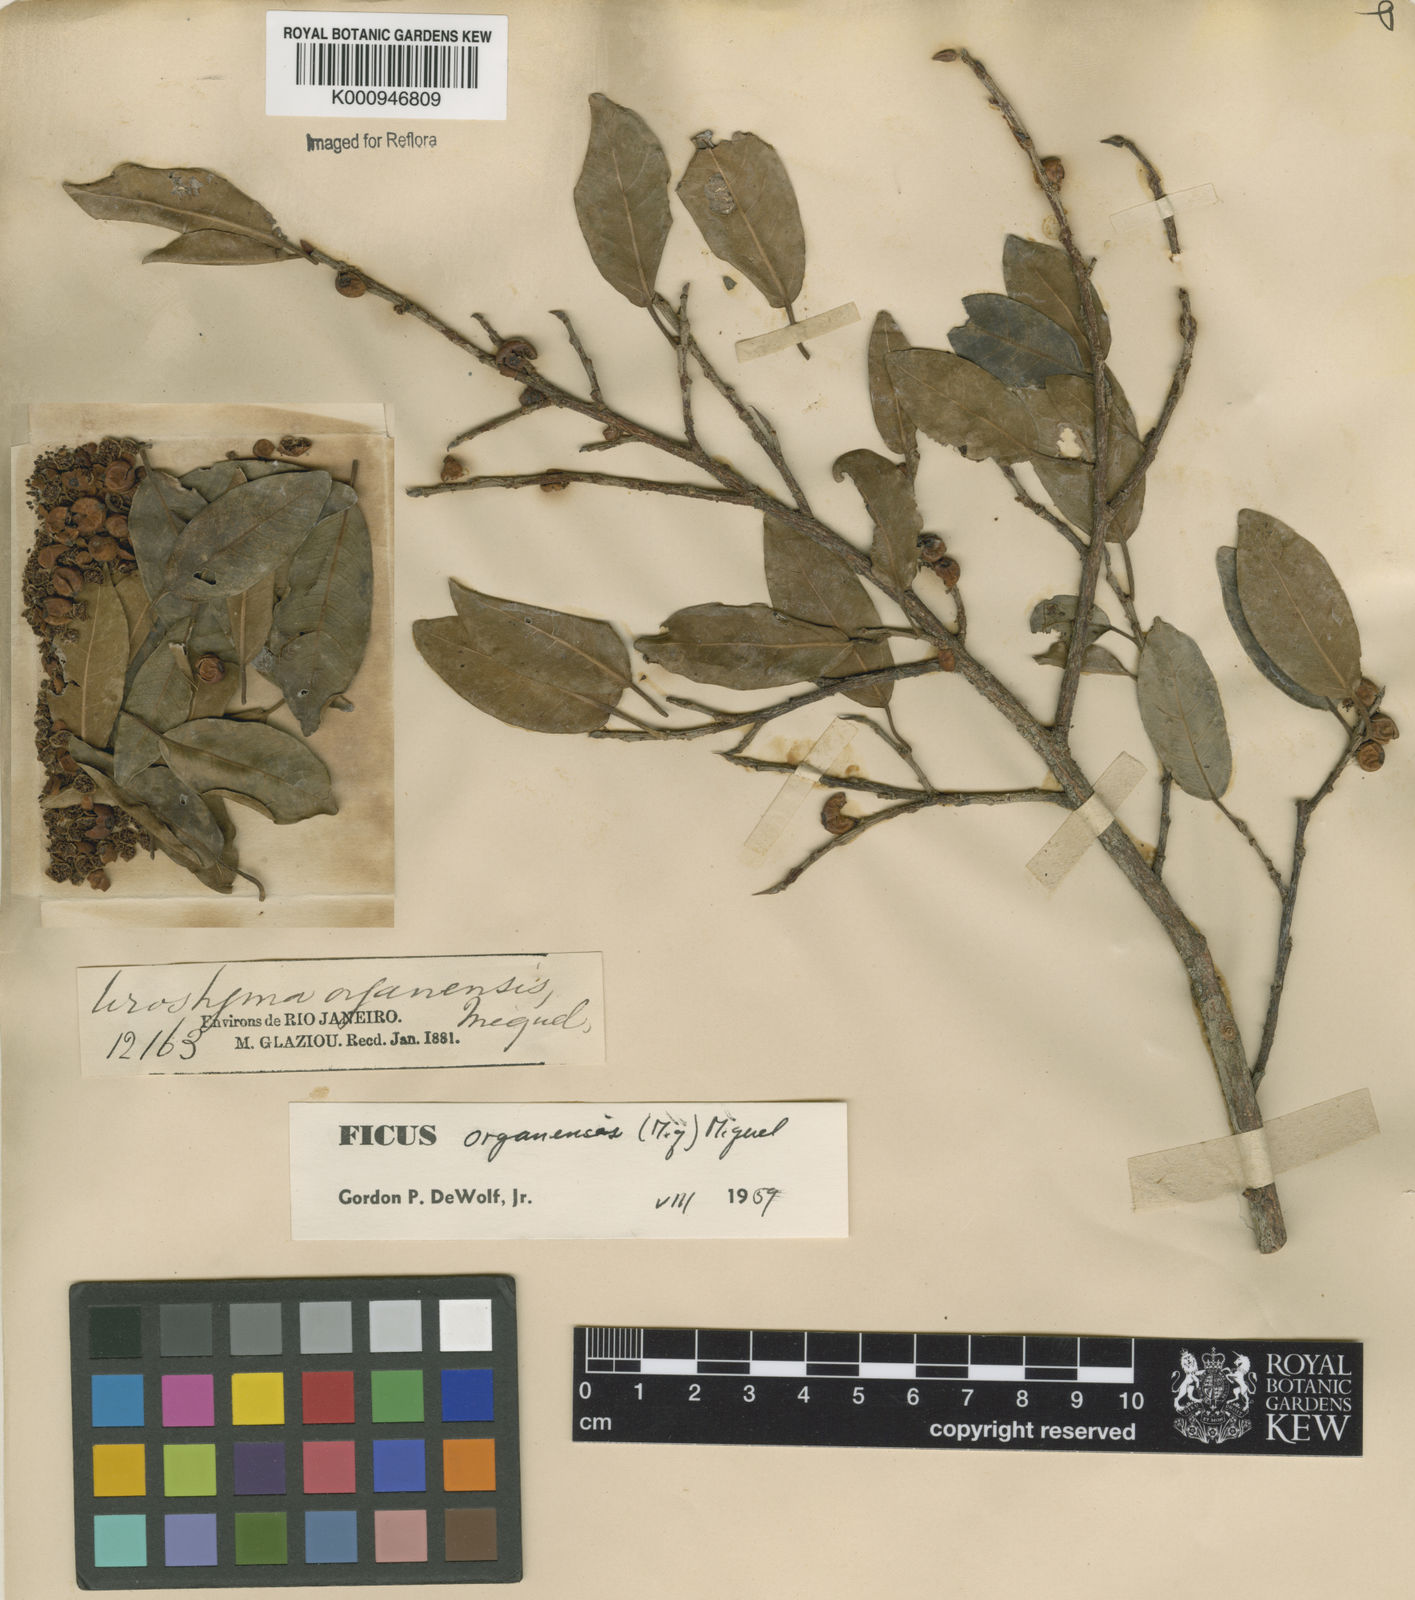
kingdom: Plantae
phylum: Tracheophyta
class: Magnoliopsida
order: Rosales
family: Moraceae
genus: Ficus
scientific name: Ficus organensis
